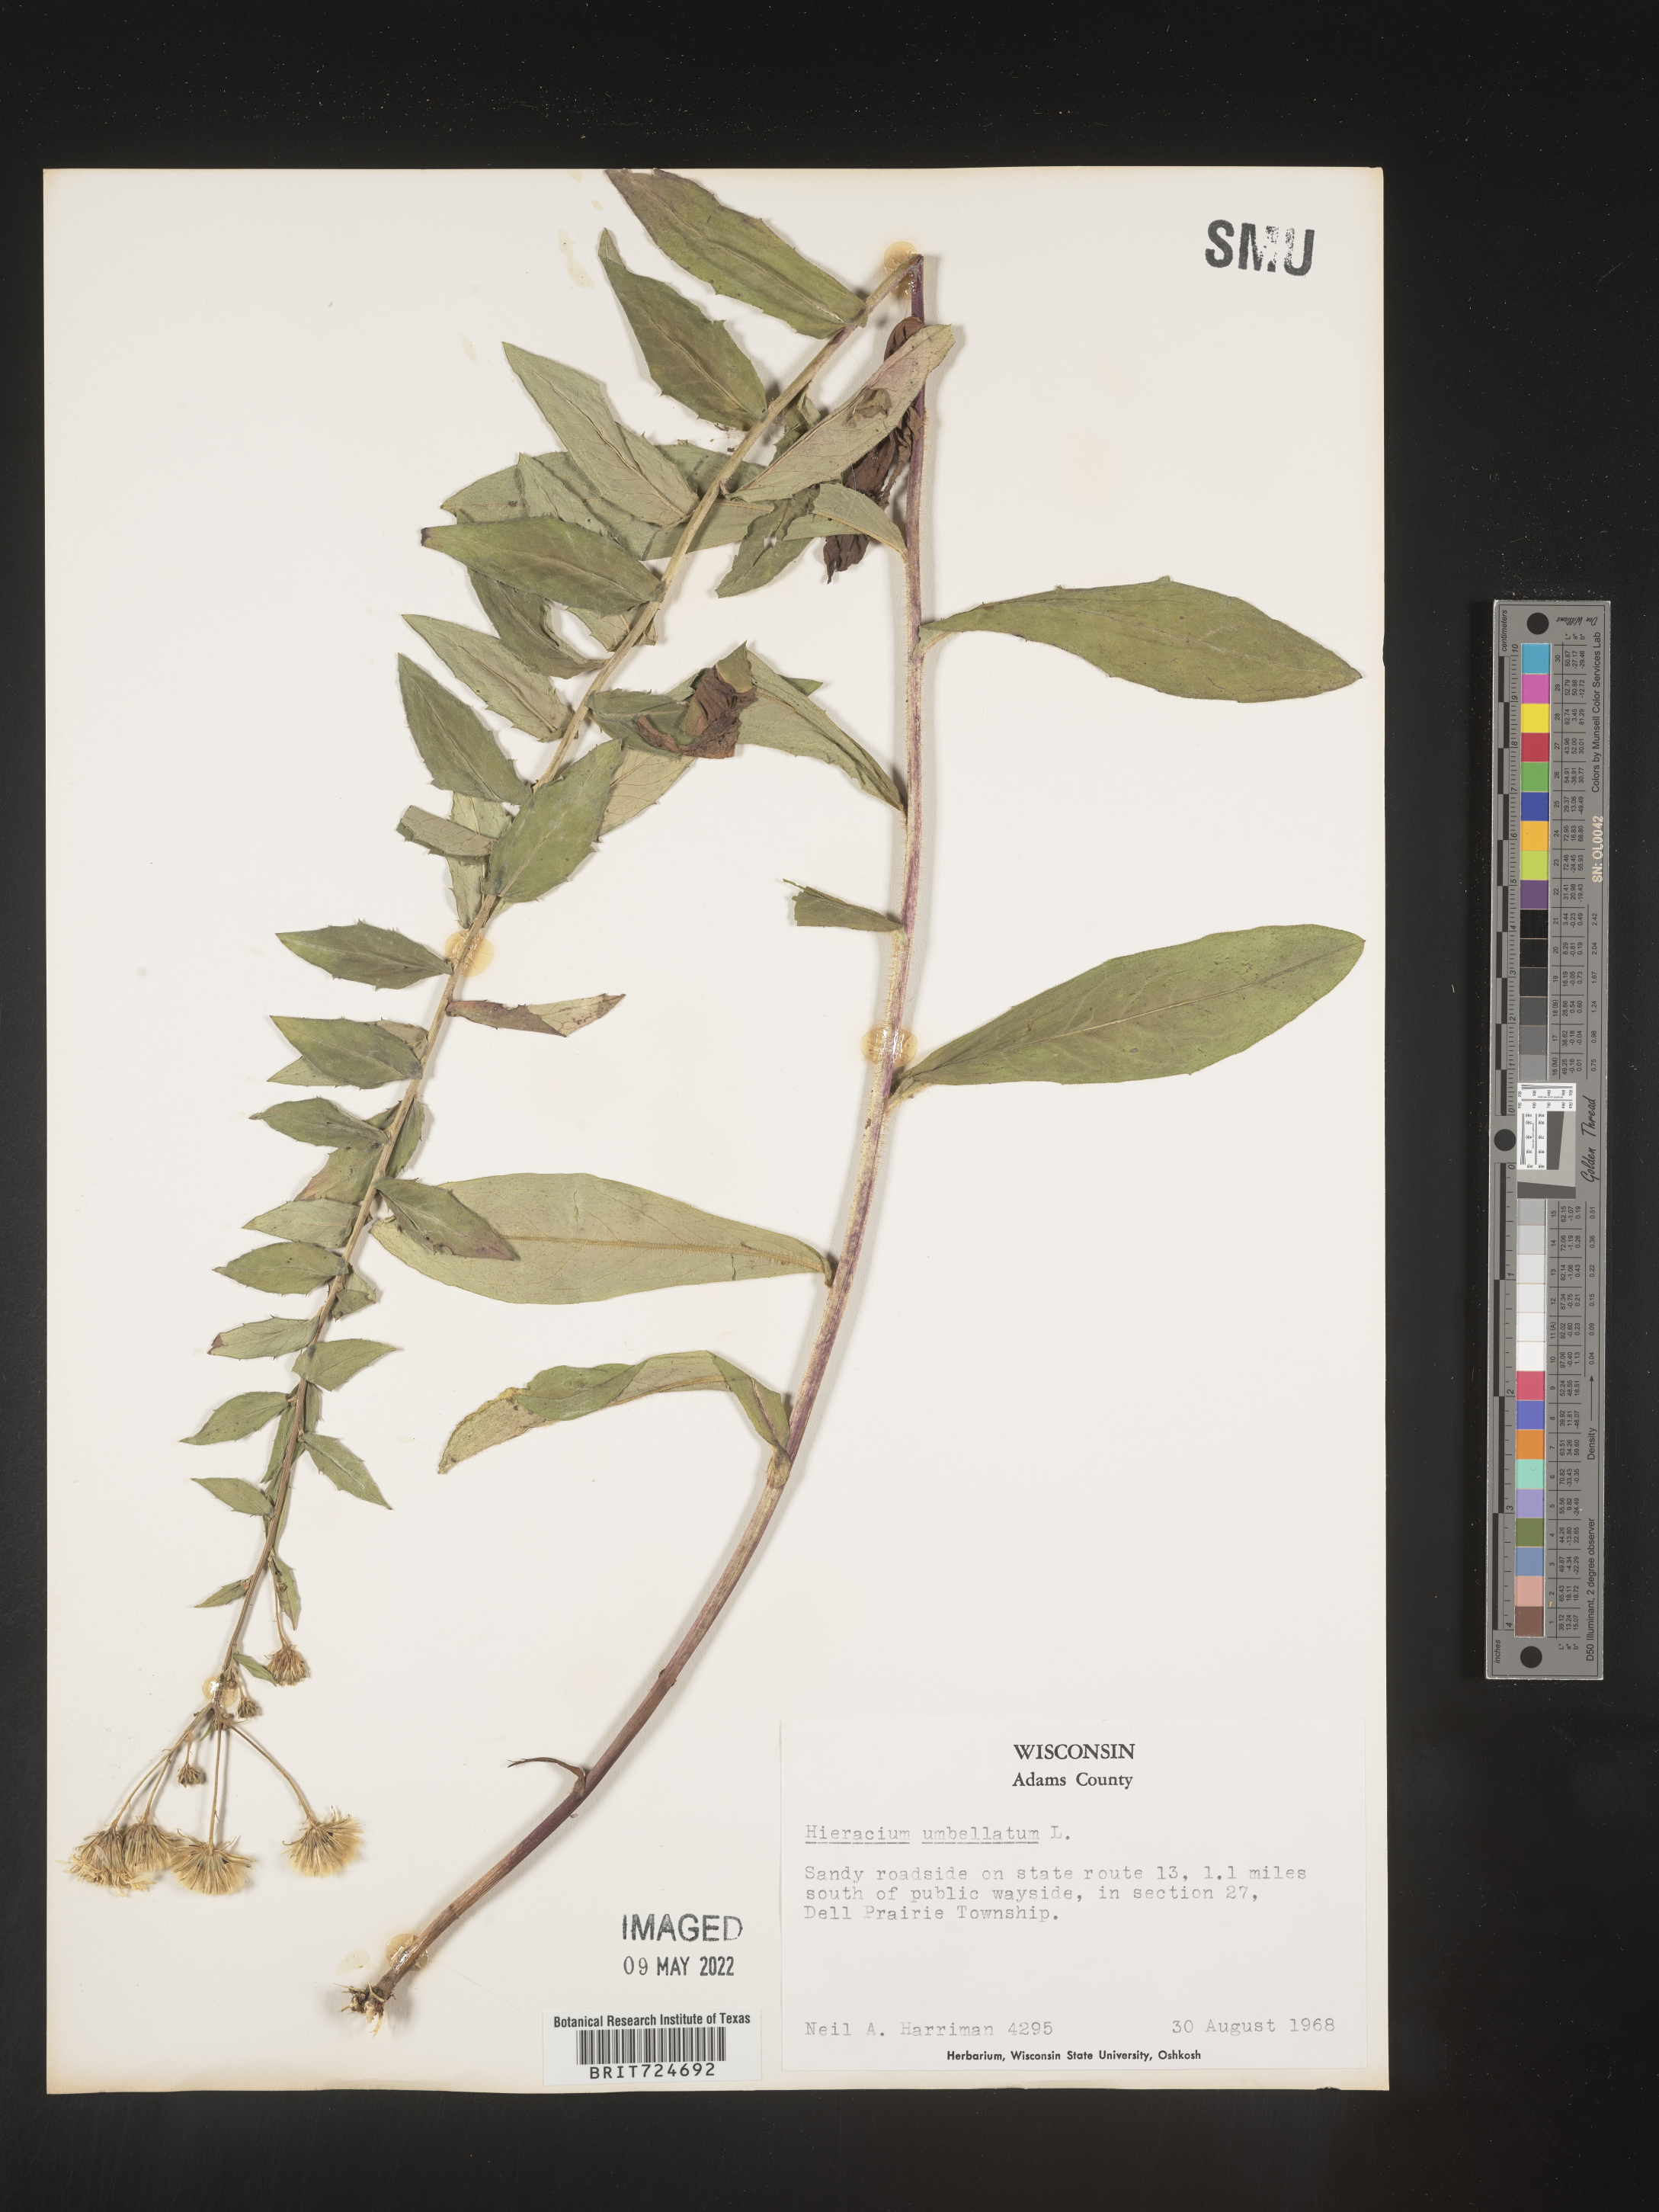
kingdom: Plantae
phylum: Tracheophyta
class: Magnoliopsida
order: Asterales
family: Asteraceae
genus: Hieracium
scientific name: Hieracium
